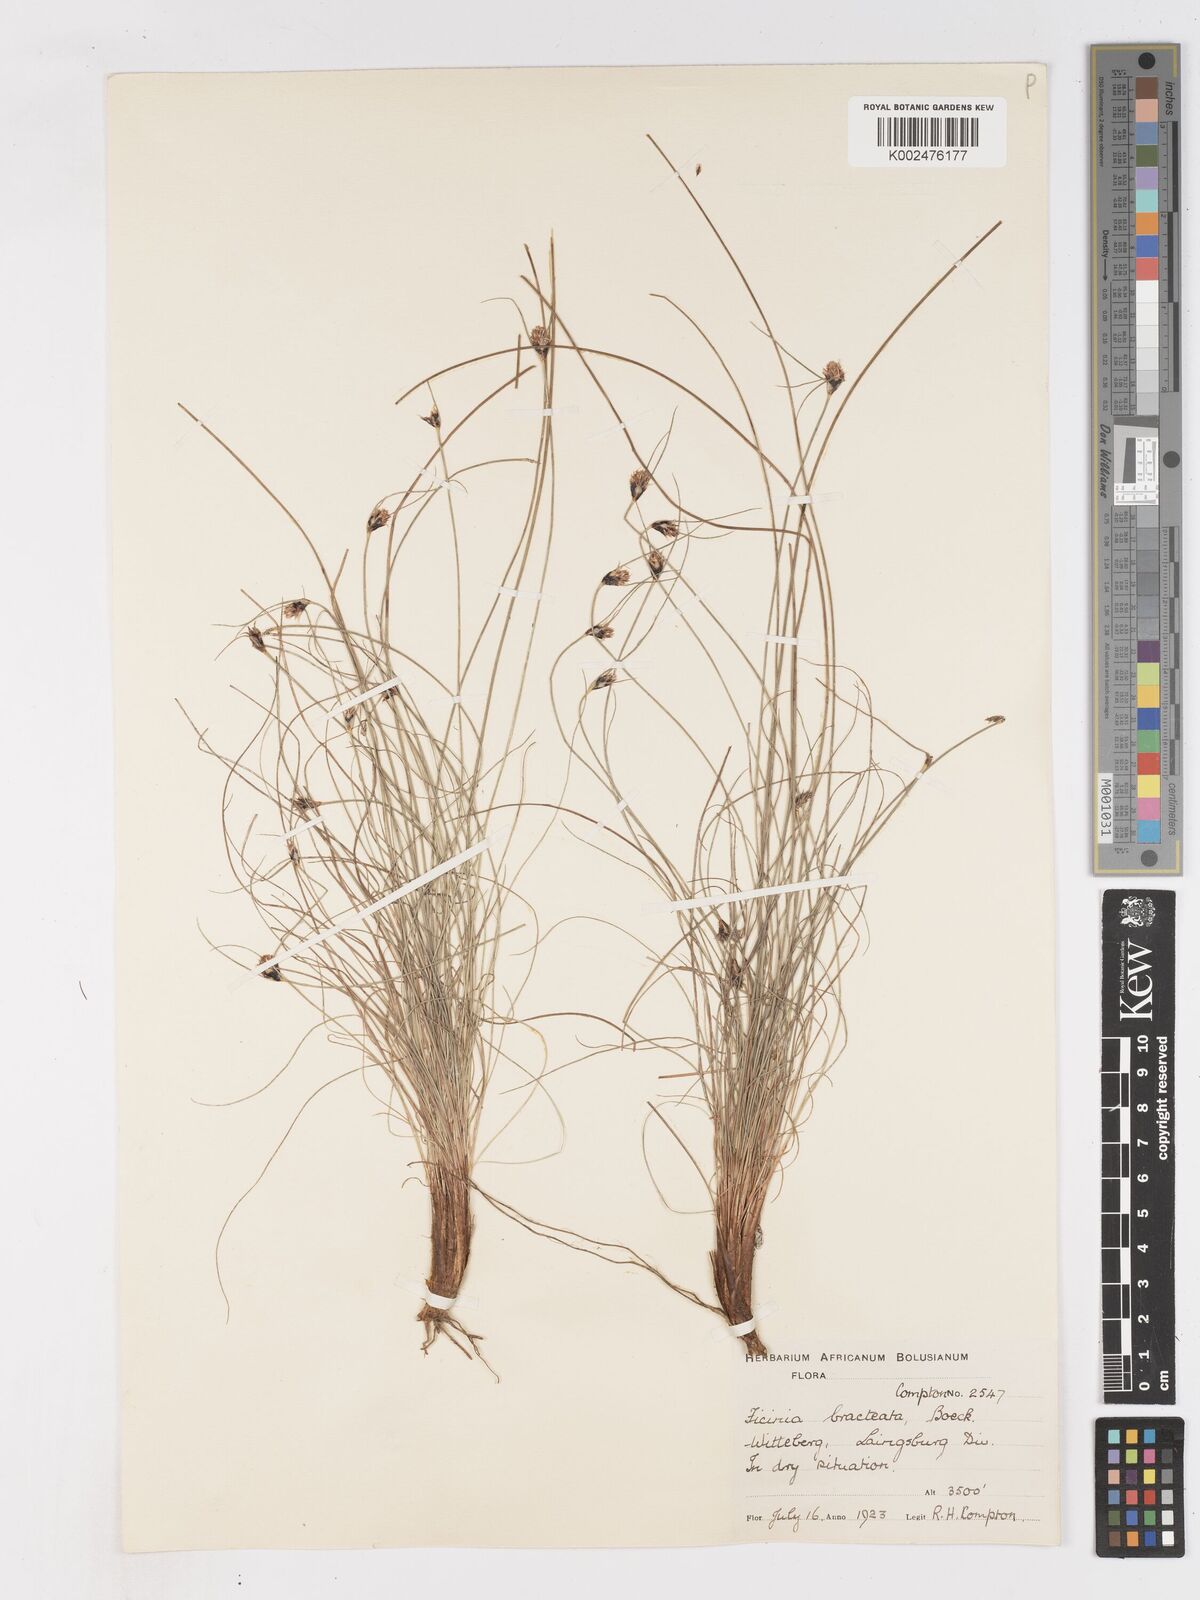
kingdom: Plantae
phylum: Tracheophyta
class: Liliopsida
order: Poales
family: Cyperaceae
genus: Ficinia
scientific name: Ficinia nigrescens
